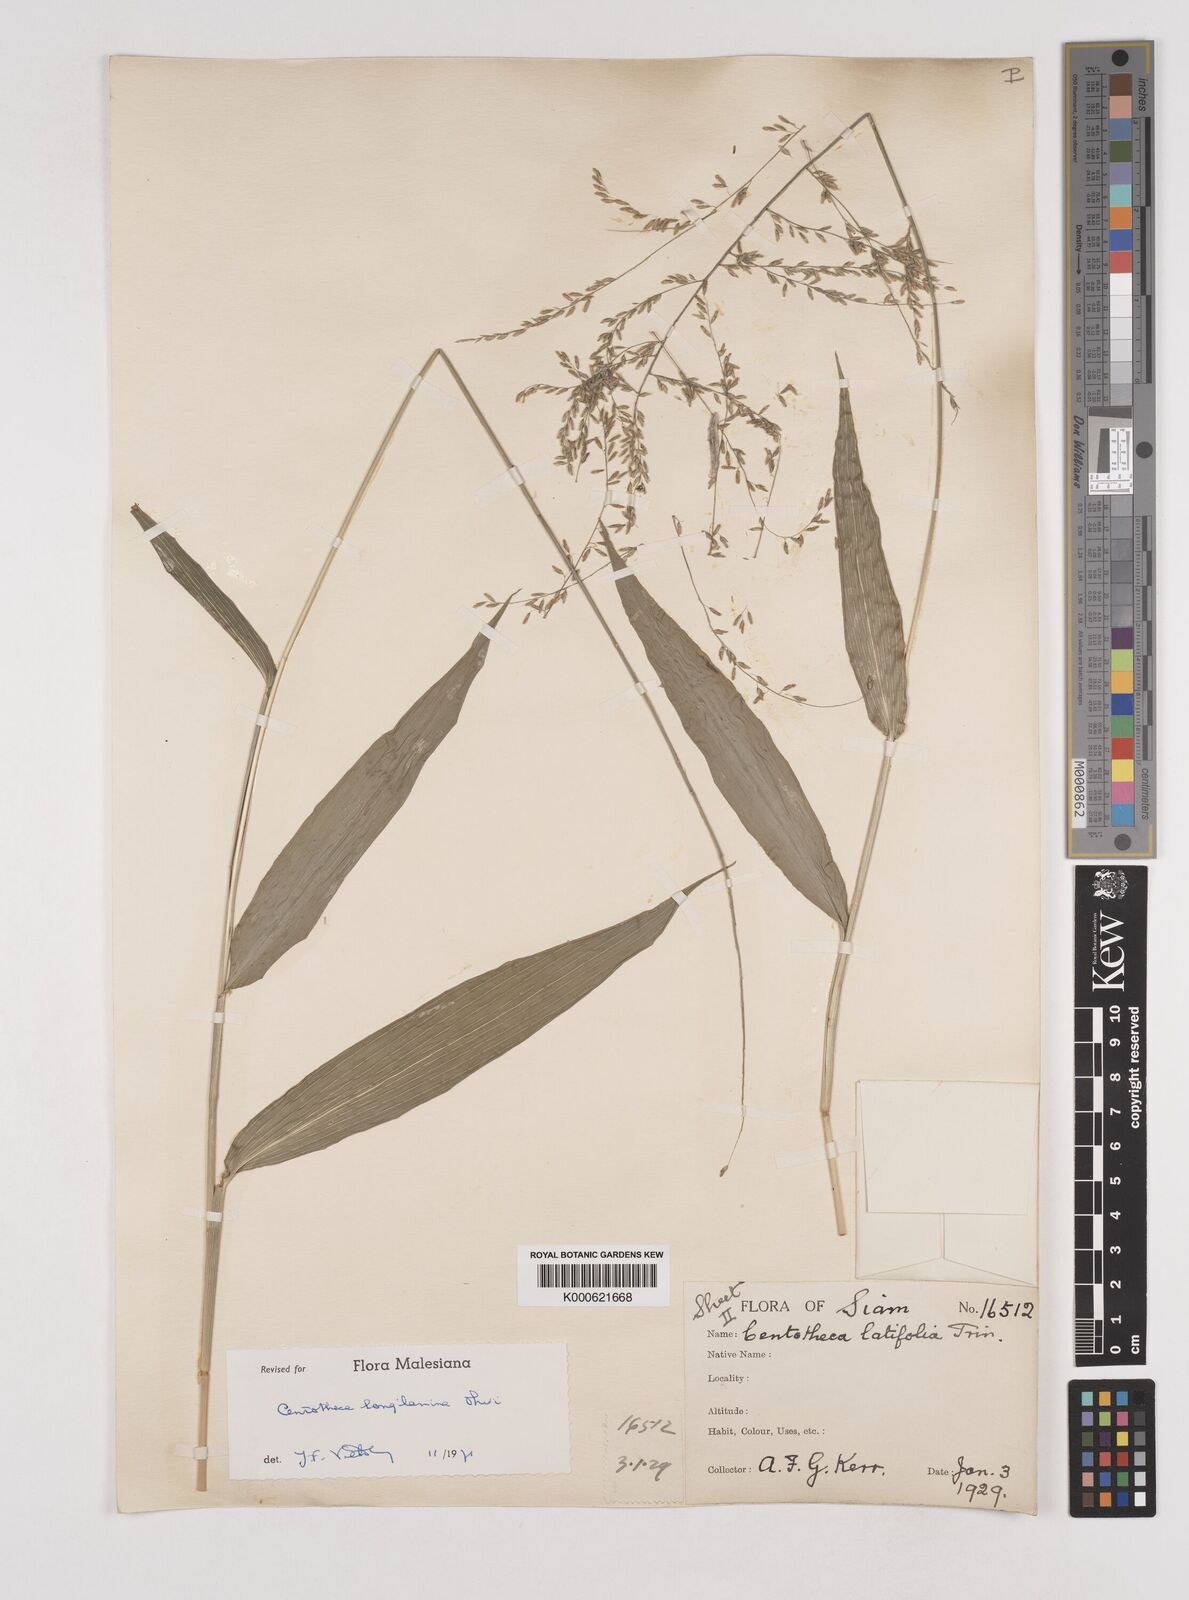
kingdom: Plantae
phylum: Tracheophyta
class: Liliopsida
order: Poales
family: Poaceae
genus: Centotheca
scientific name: Centotheca lappacea
